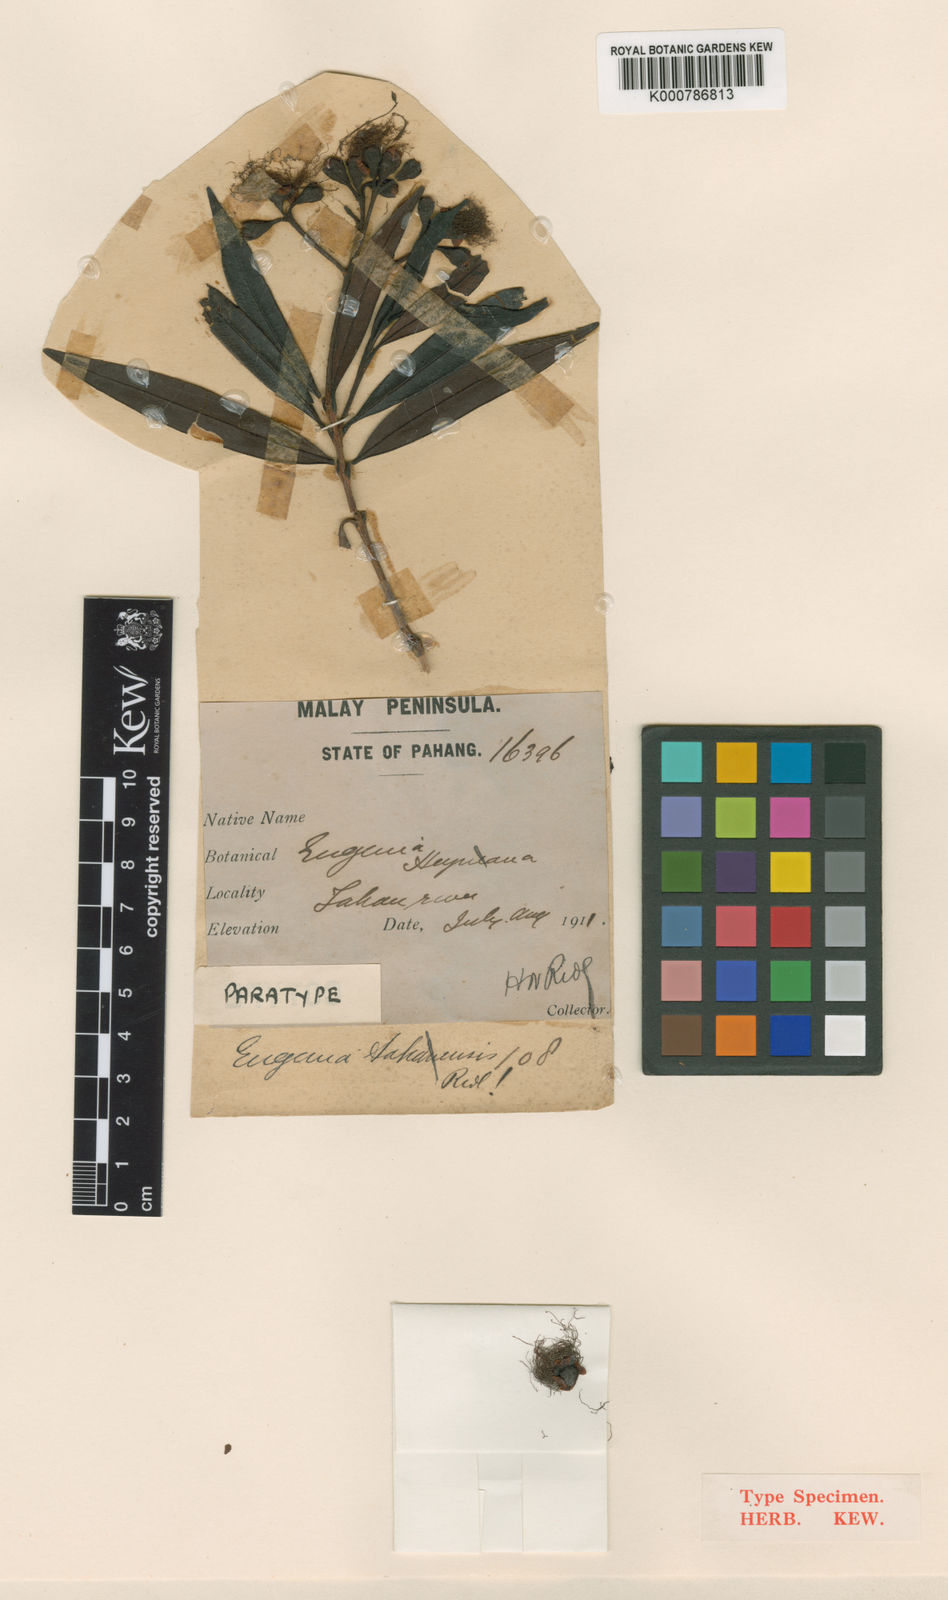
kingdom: Plantae
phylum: Tracheophyta
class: Magnoliopsida
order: Myrtales
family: Myrtaceae
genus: Syzygium
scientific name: Syzygium salictoides
